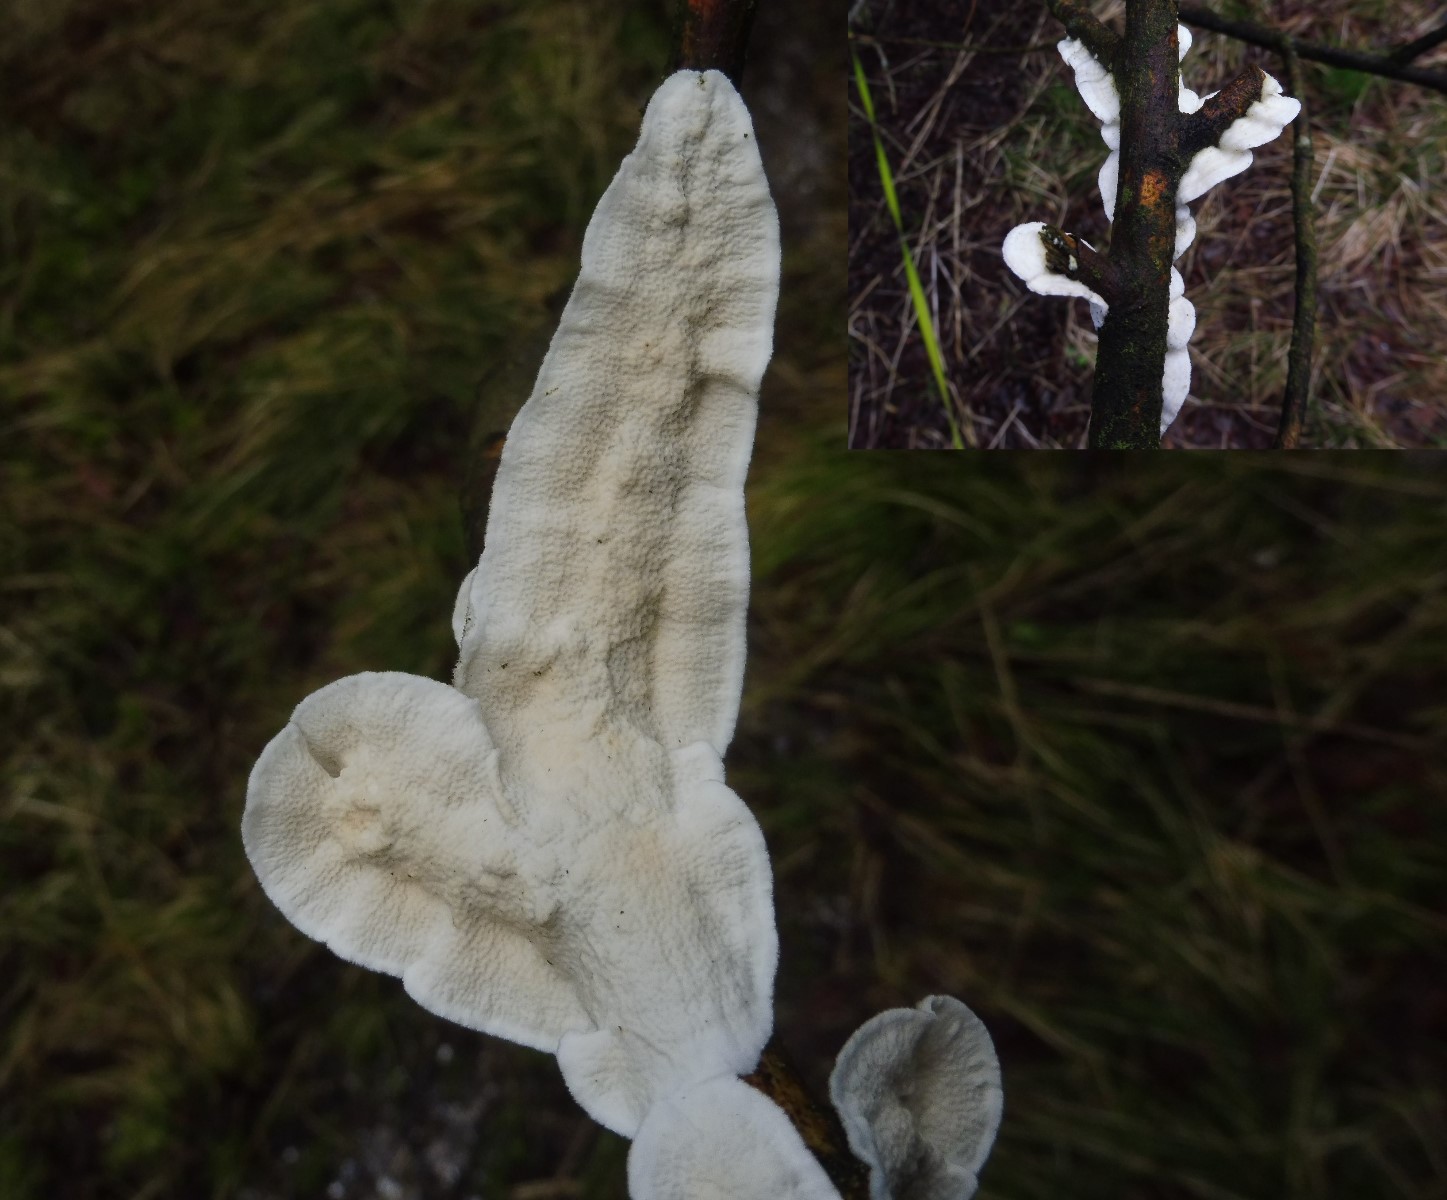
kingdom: Fungi
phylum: Basidiomycota
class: Agaricomycetes
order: Polyporales
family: Irpicaceae
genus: Byssomerulius
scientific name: Byssomerulius corium
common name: læder-åresvamp
